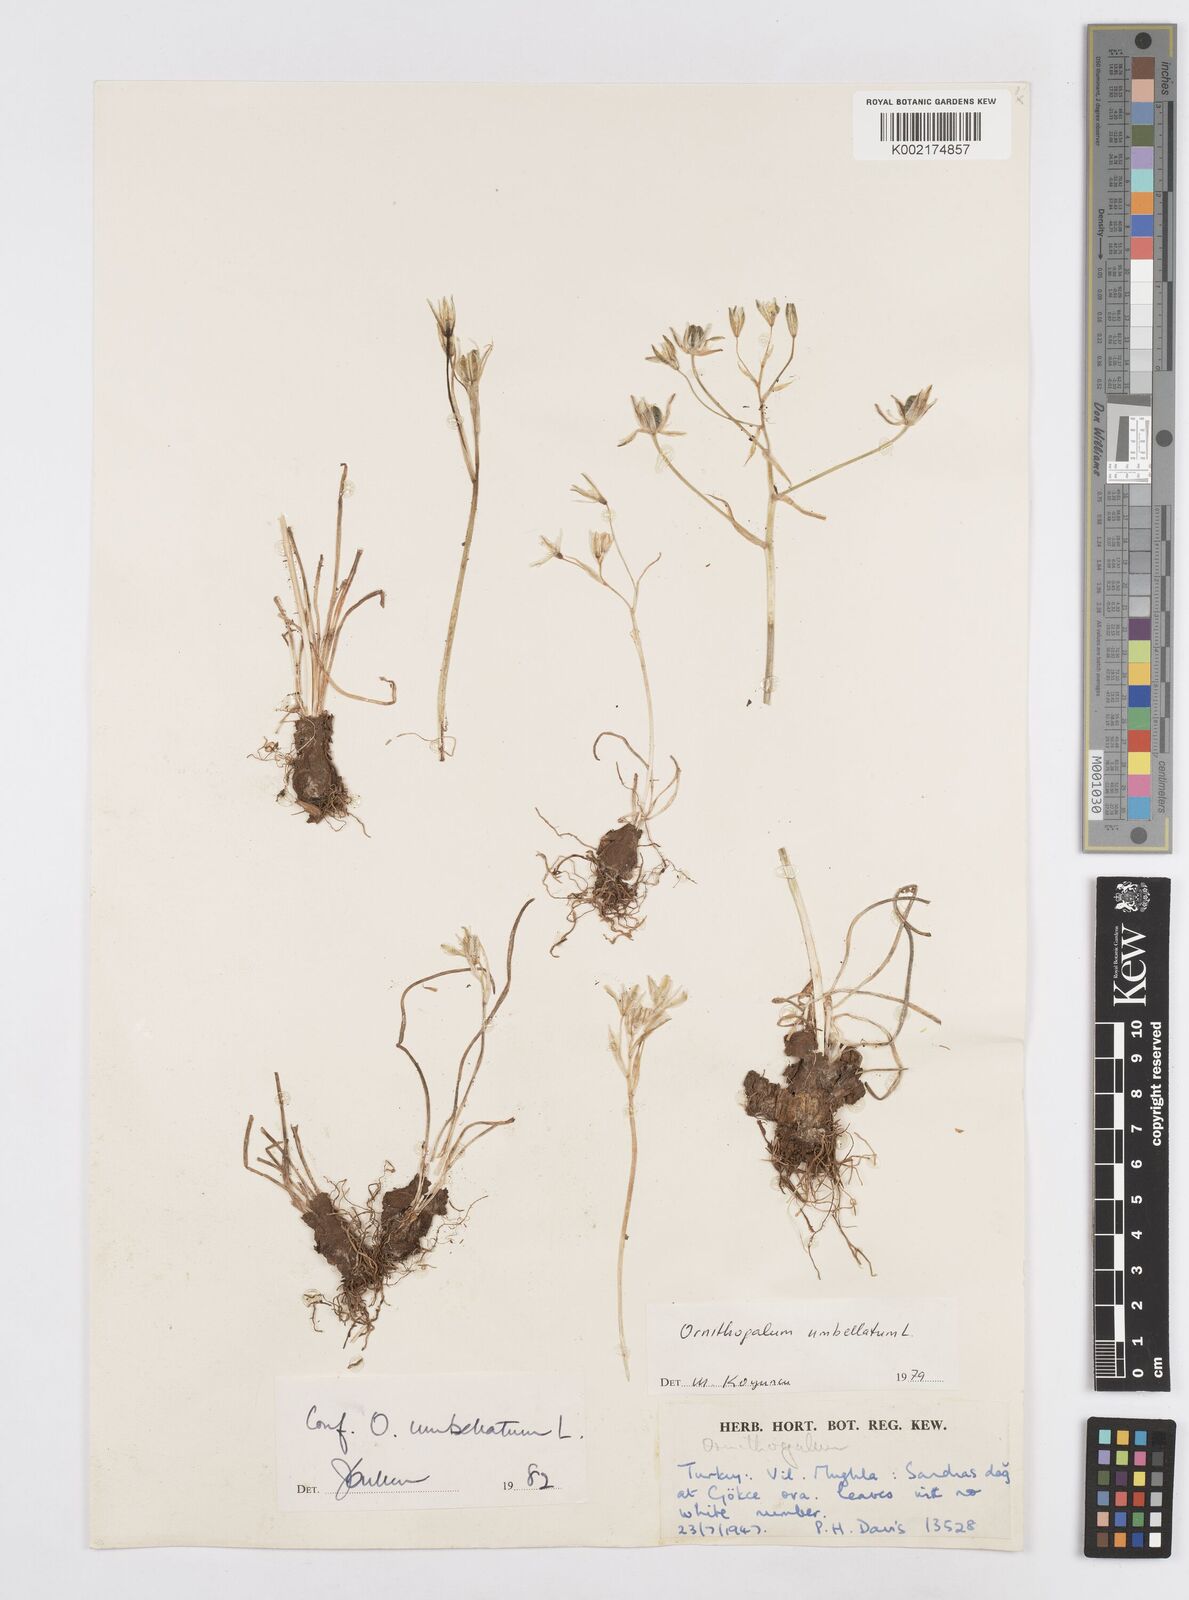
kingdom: Plantae
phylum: Tracheophyta
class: Liliopsida
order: Asparagales
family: Asparagaceae
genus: Ornithogalum
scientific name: Ornithogalum umbellatum
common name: Garden star-of-bethlehem
